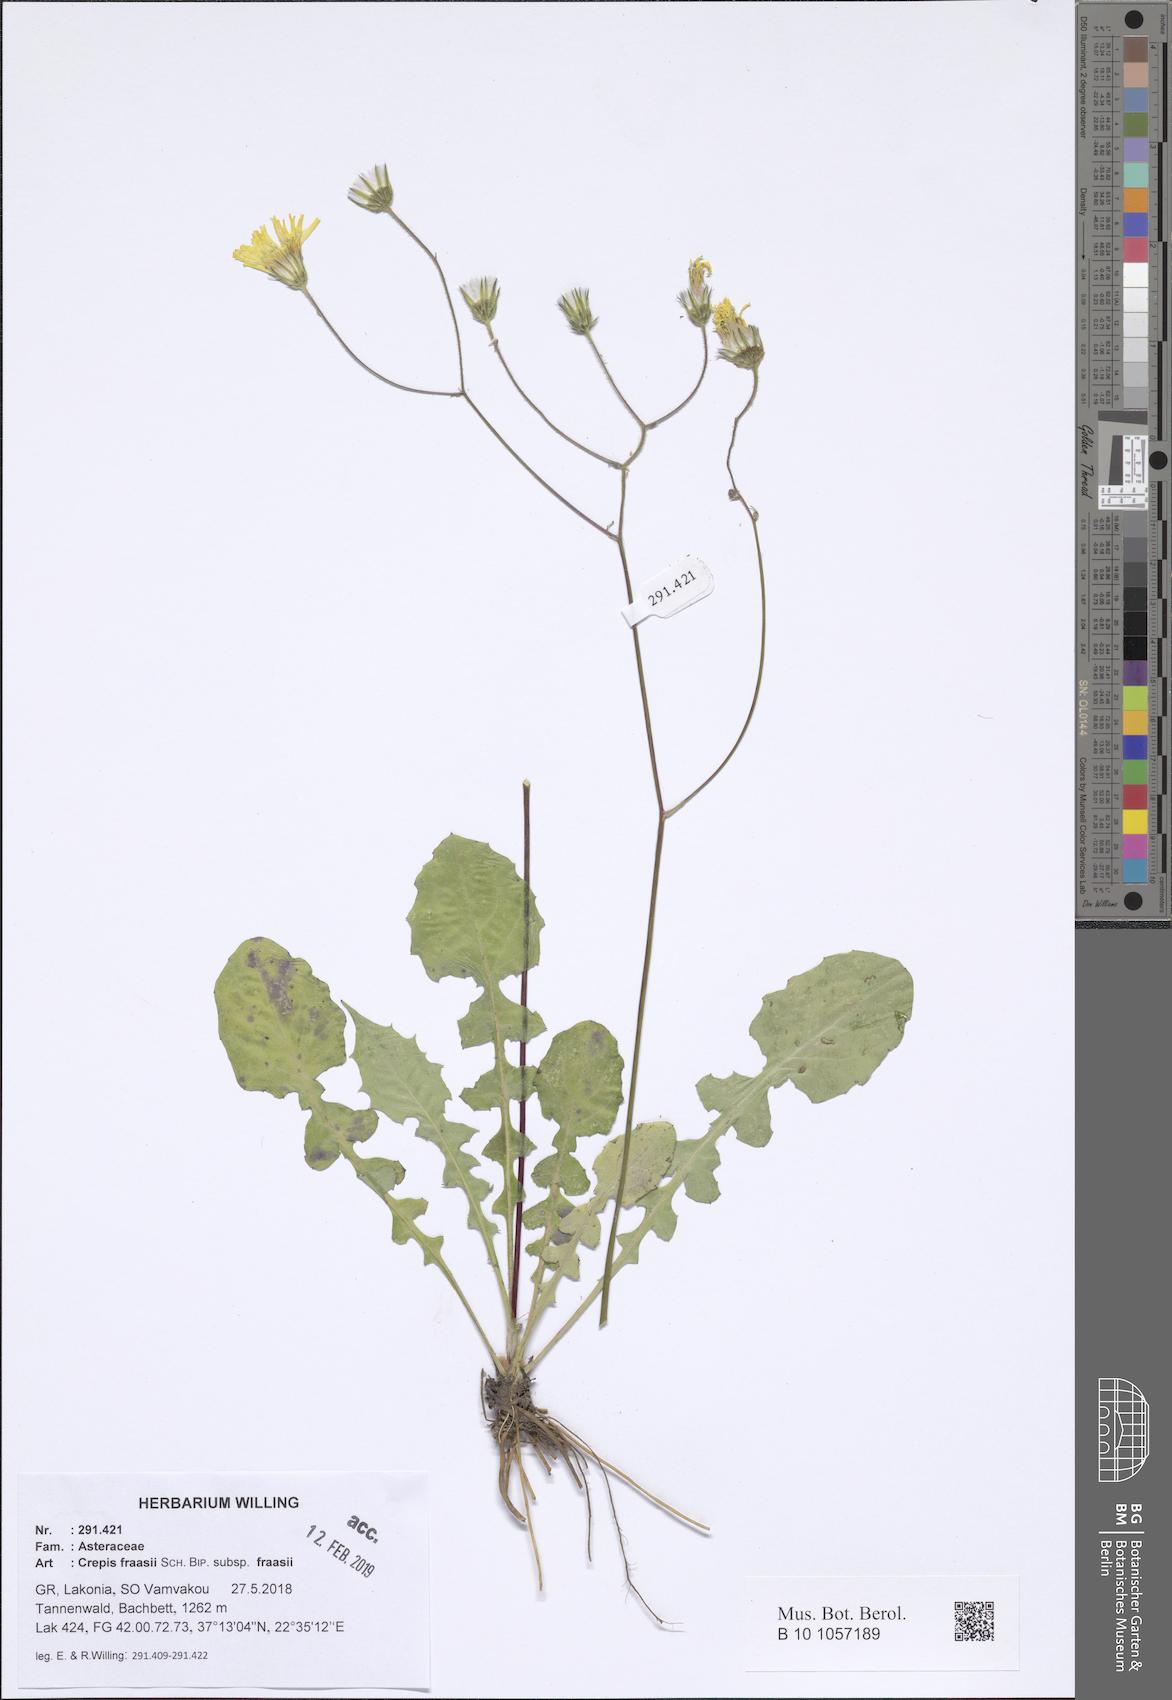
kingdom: Plantae
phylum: Tracheophyta
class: Magnoliopsida
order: Asterales
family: Asteraceae
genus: Crepis
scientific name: Crepis fraasii
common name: Hawk's-beard
